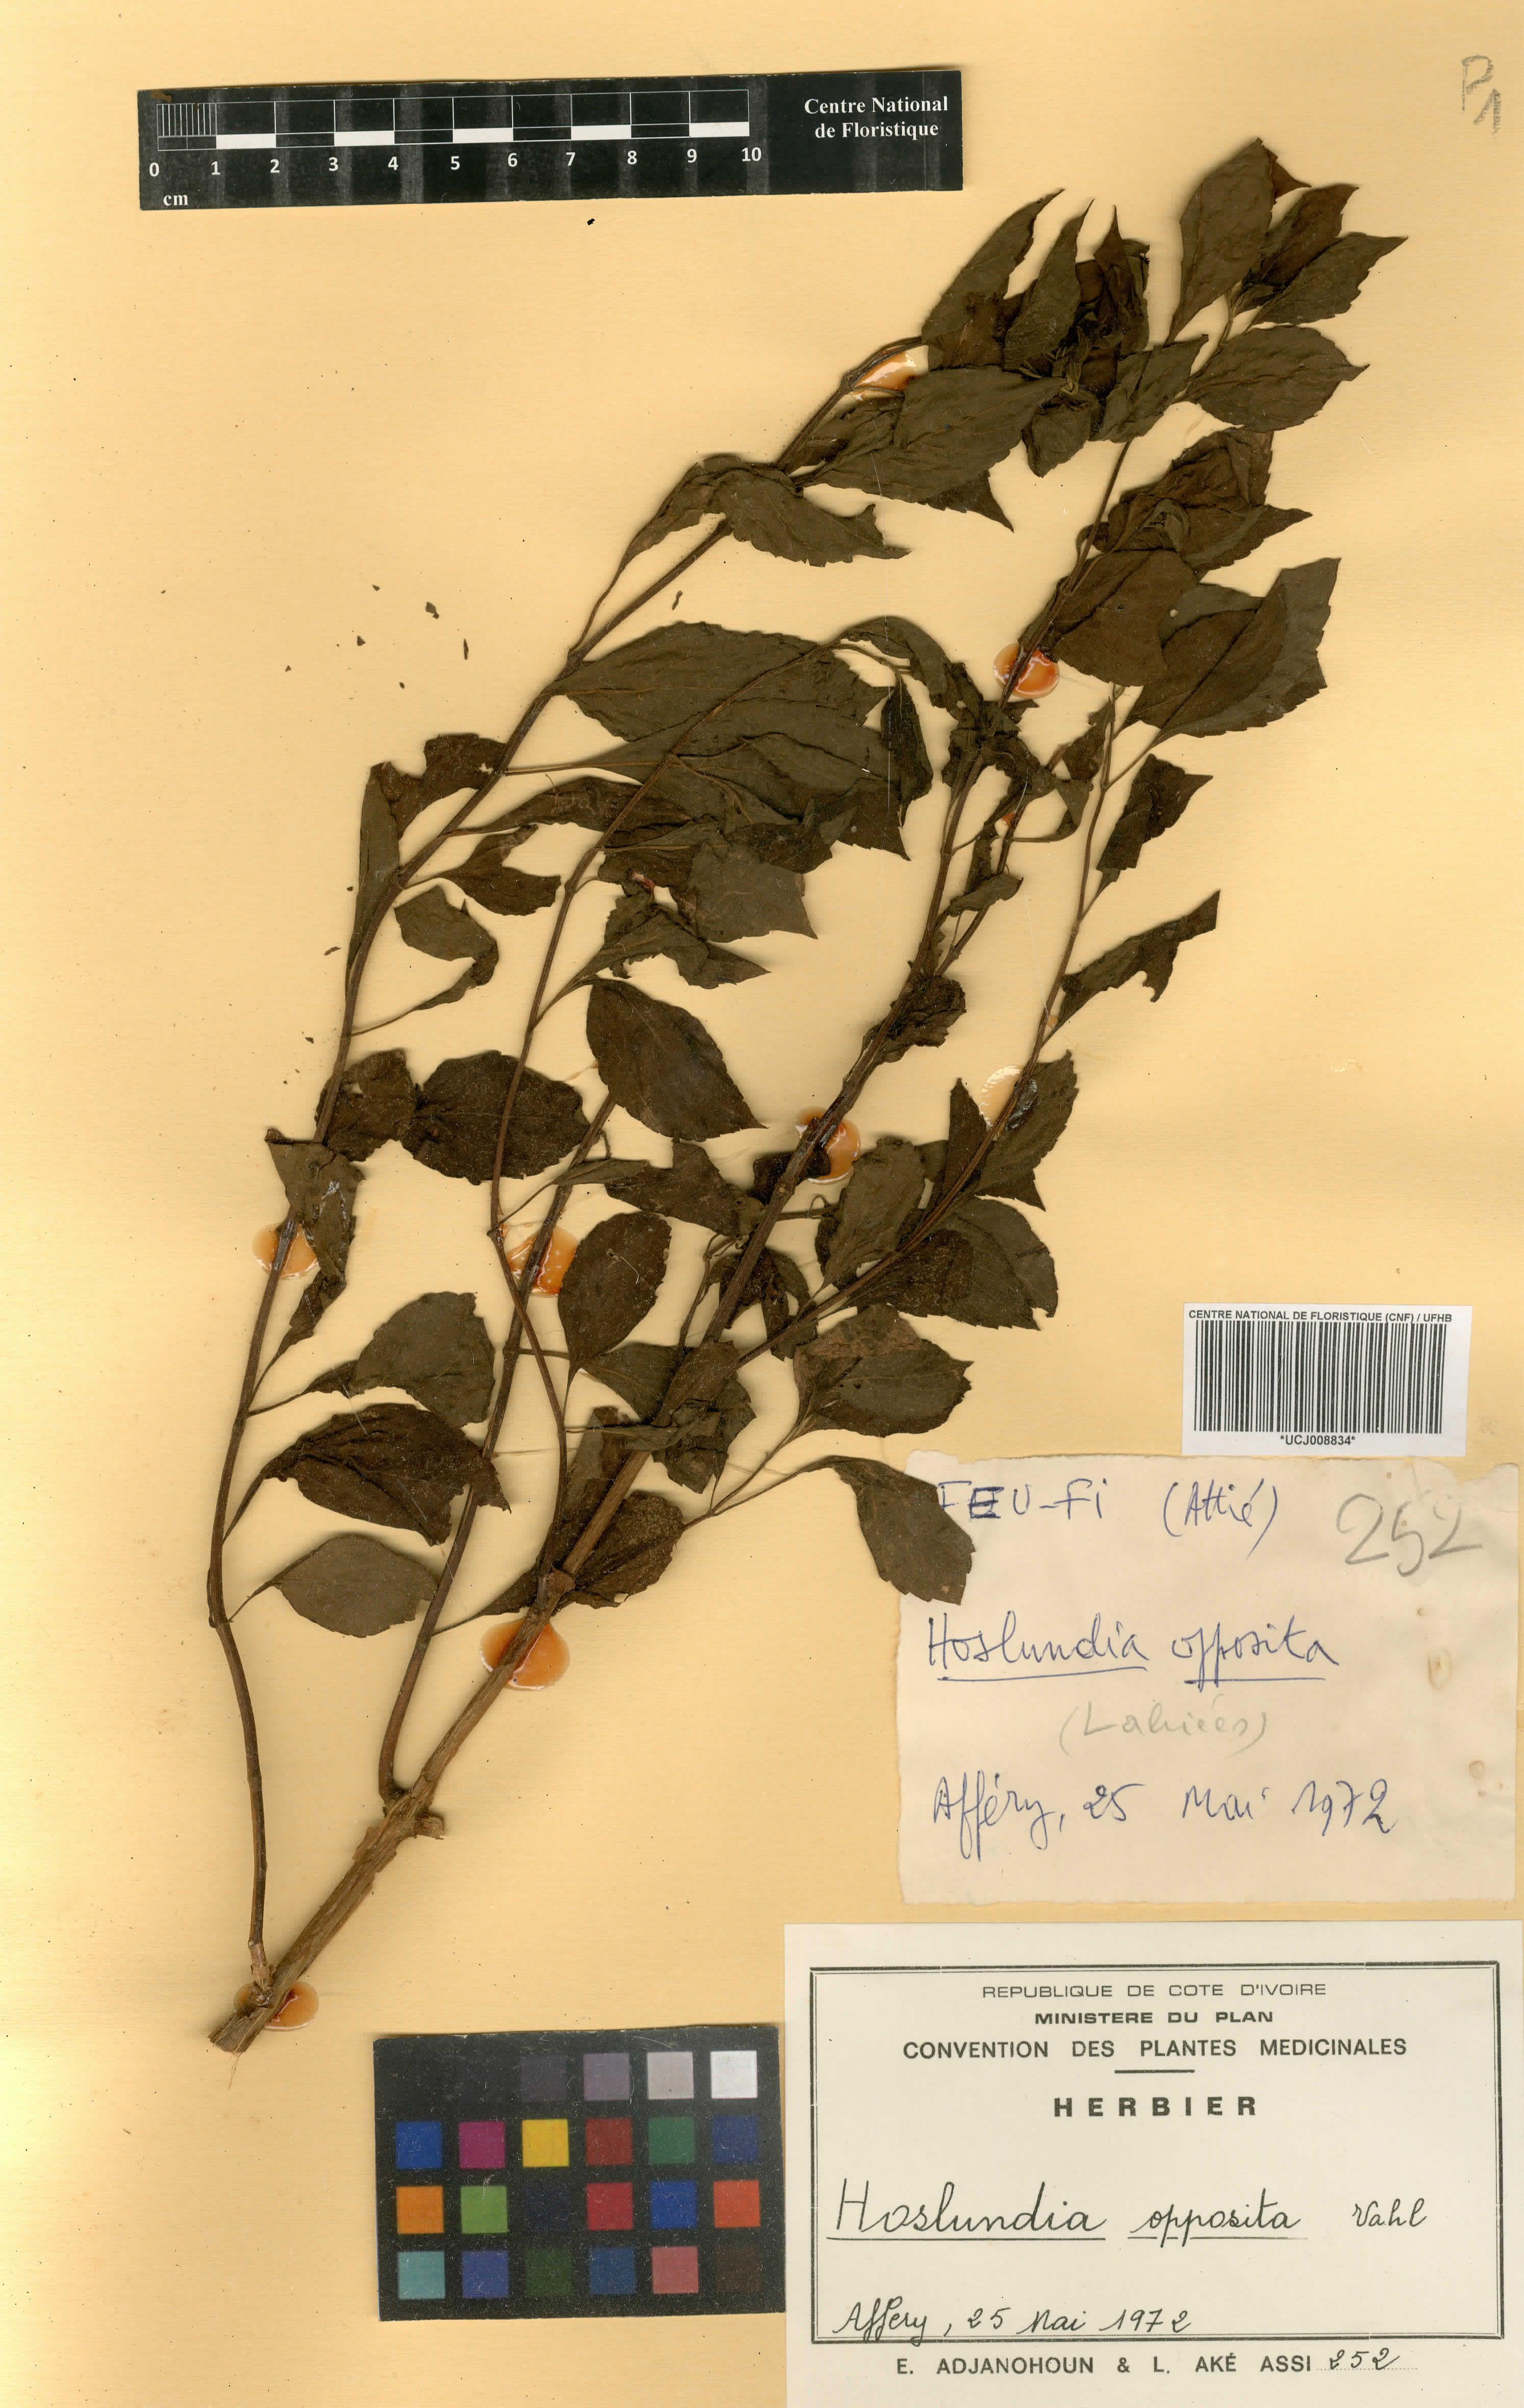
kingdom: Plantae
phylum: Tracheophyta
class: Magnoliopsida
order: Lamiales
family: Lamiaceae
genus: Hoslundia
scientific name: Hoslundia opposita
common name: Kamyuye
